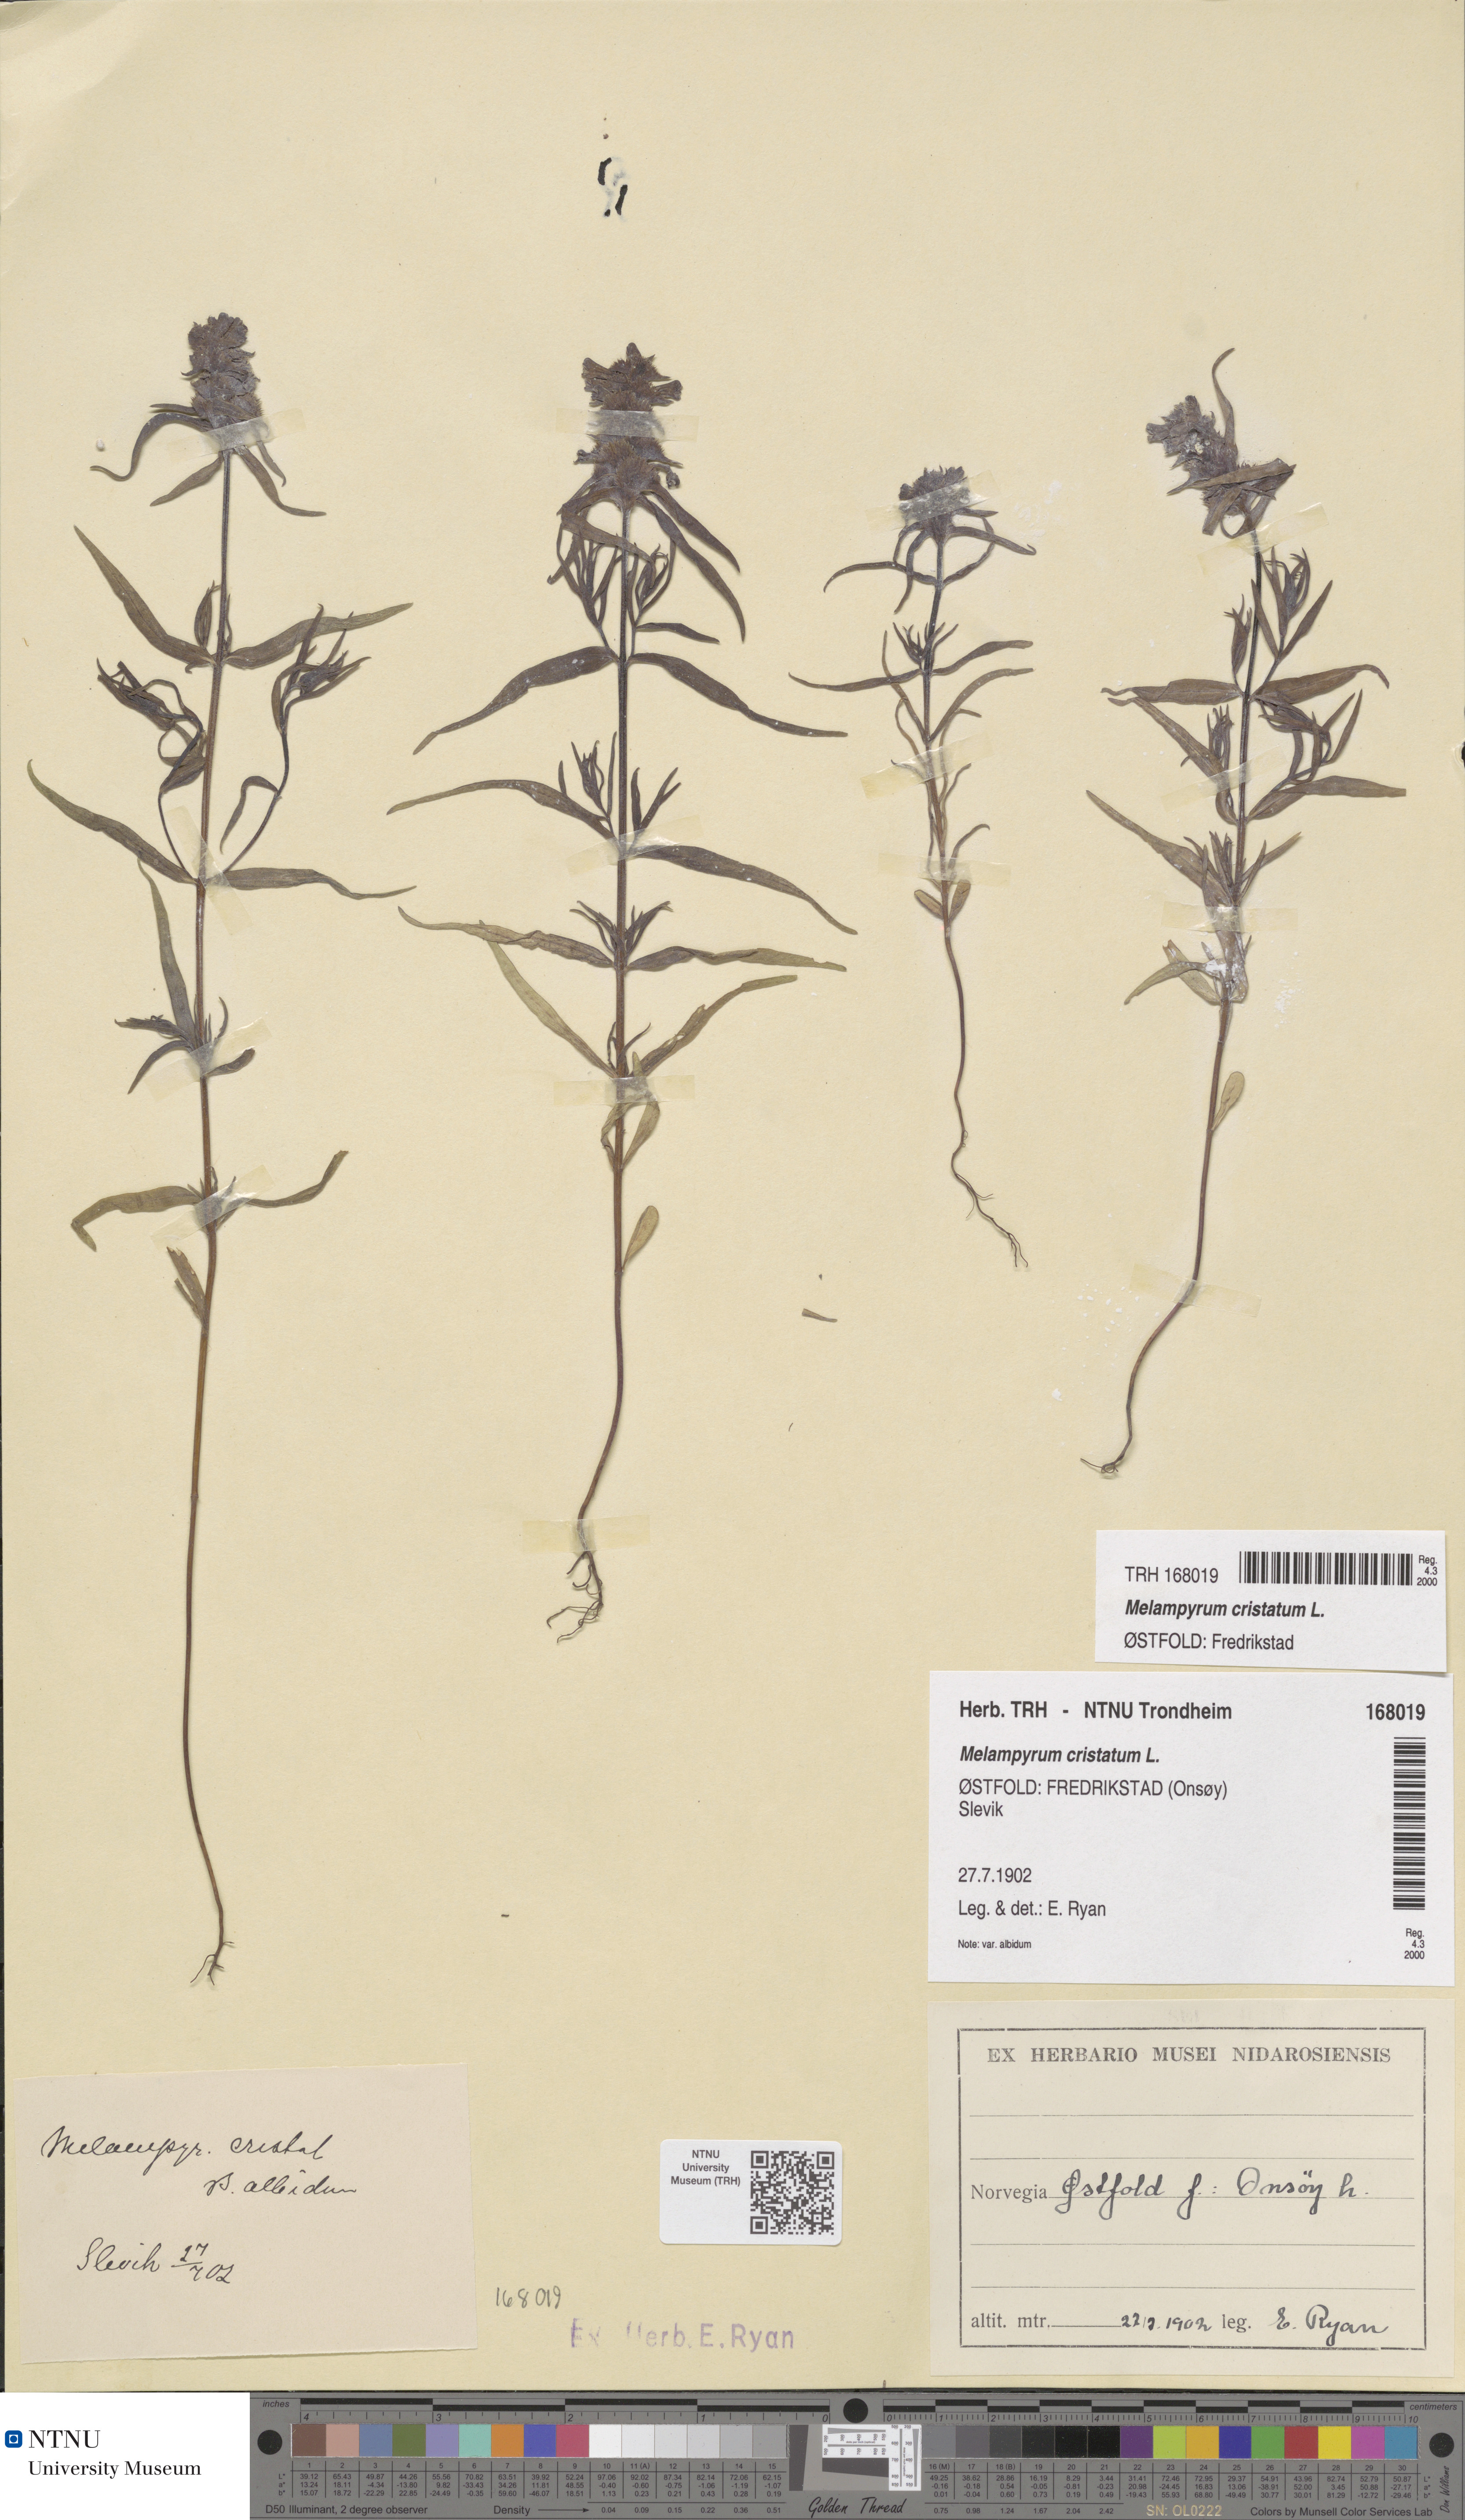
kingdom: Plantae
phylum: Tracheophyta
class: Magnoliopsida
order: Lamiales
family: Orobanchaceae
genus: Melampyrum
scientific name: Melampyrum cristatum
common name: Crested cow-wheat
